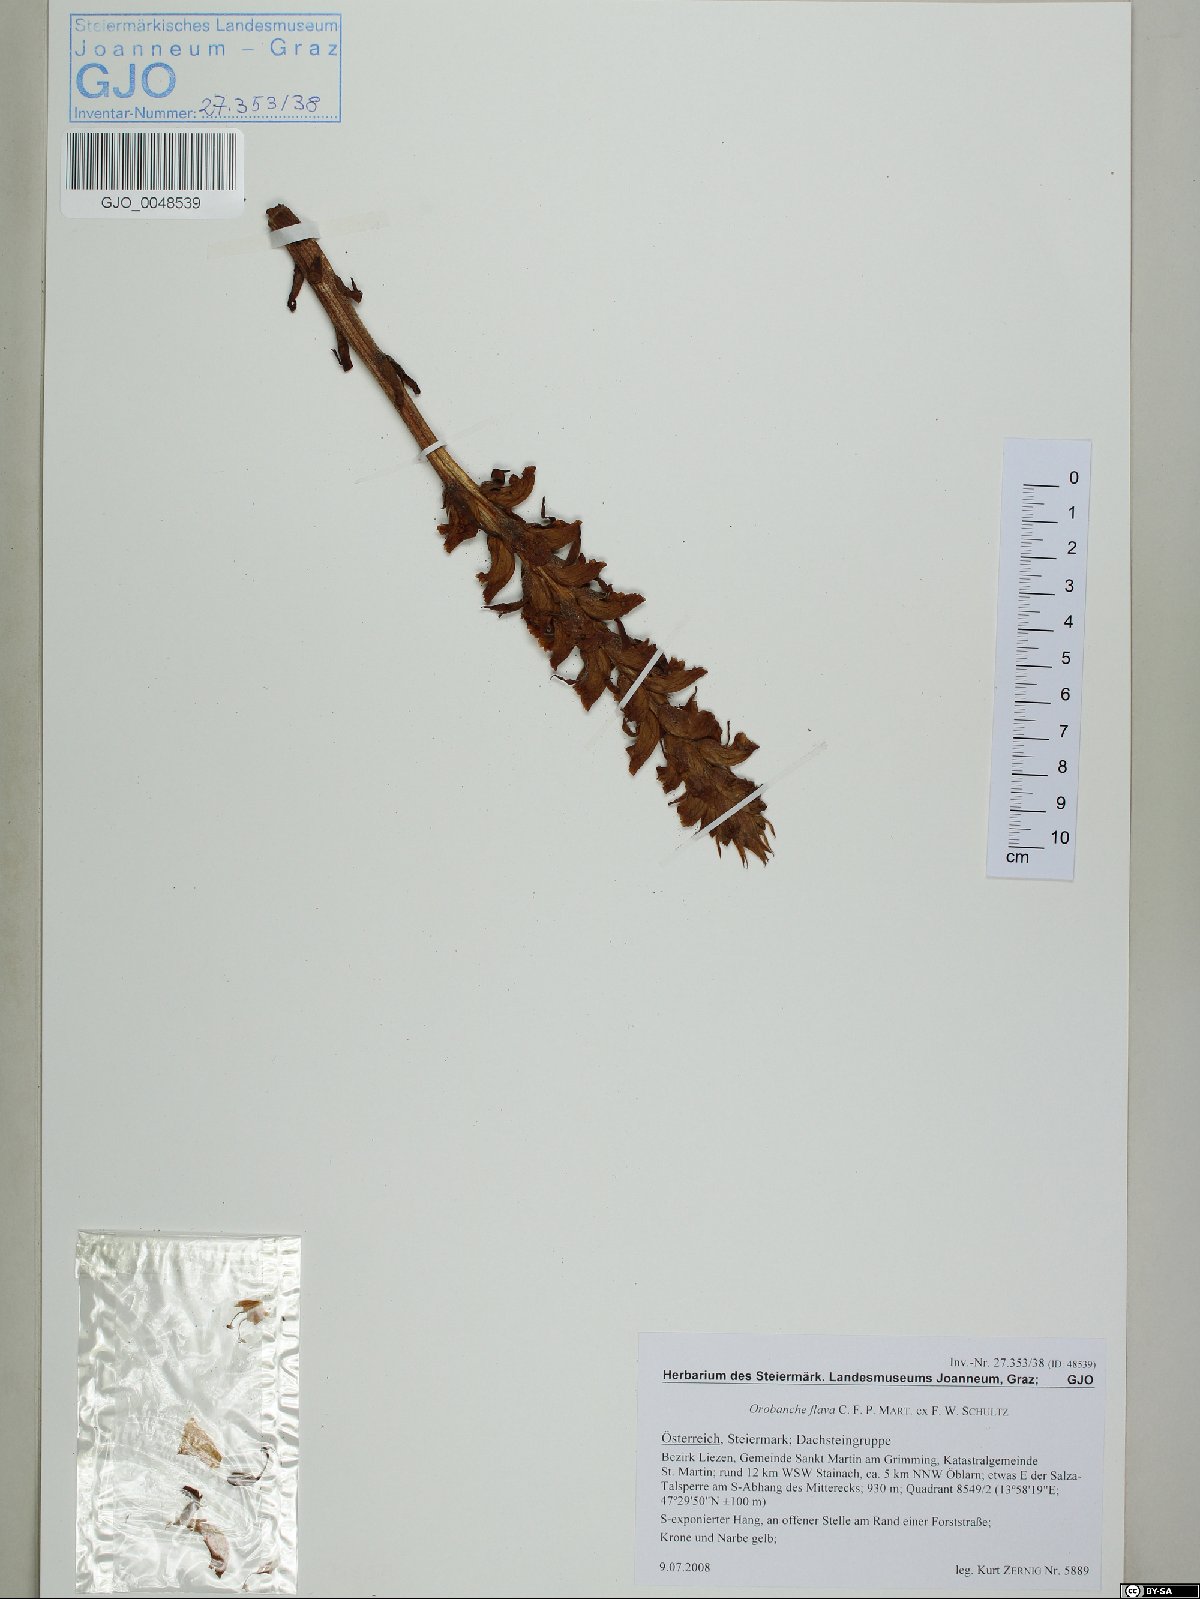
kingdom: Plantae
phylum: Tracheophyta
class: Magnoliopsida
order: Lamiales
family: Orobanchaceae
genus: Orobanche
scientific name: Orobanche flava
